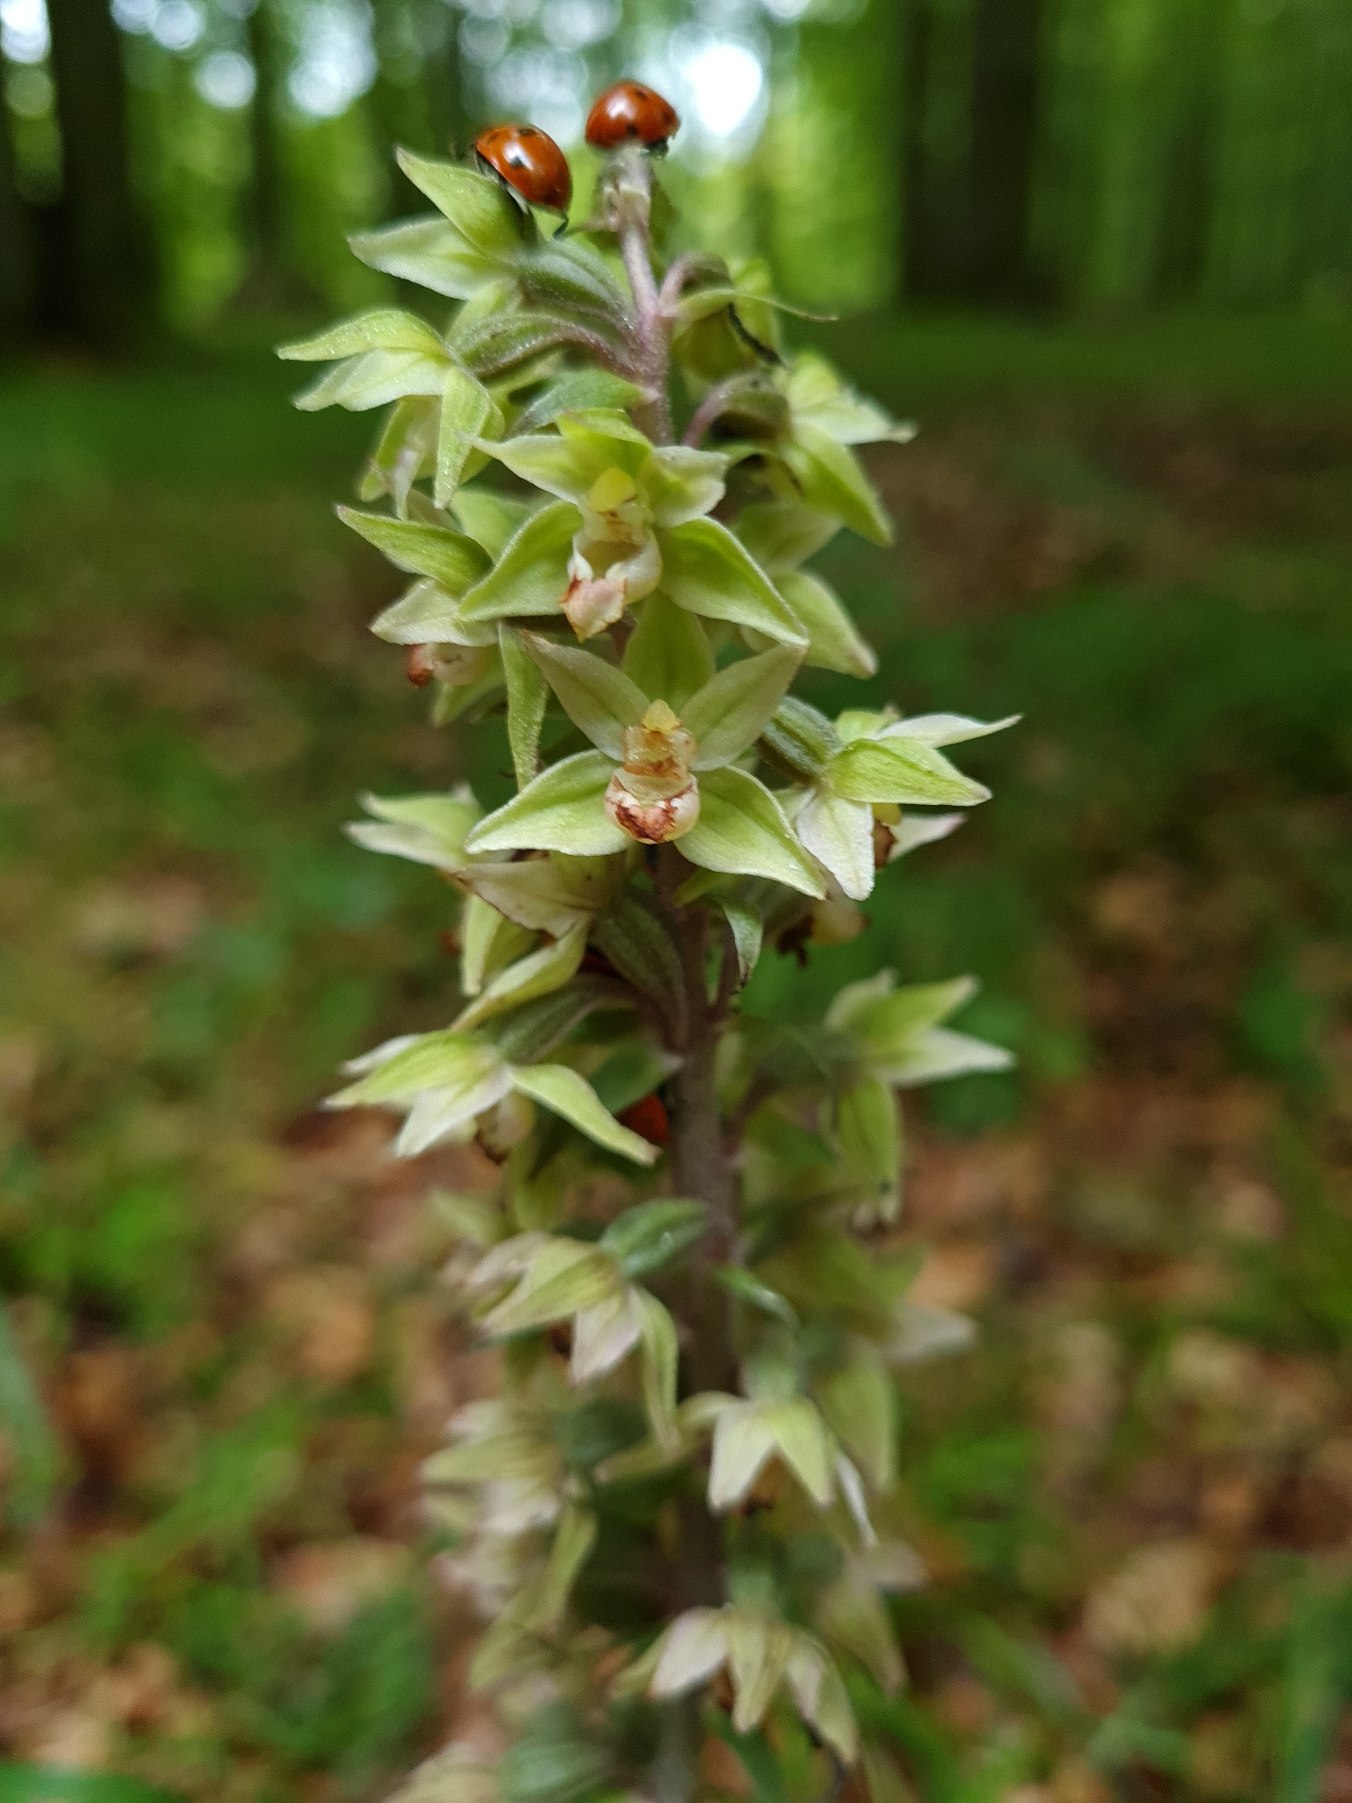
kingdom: Plantae
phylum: Tracheophyta
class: Liliopsida
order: Asparagales
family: Orchidaceae
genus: Epipactis
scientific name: Epipactis purpurata
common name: Tætblomstret hullæbe
